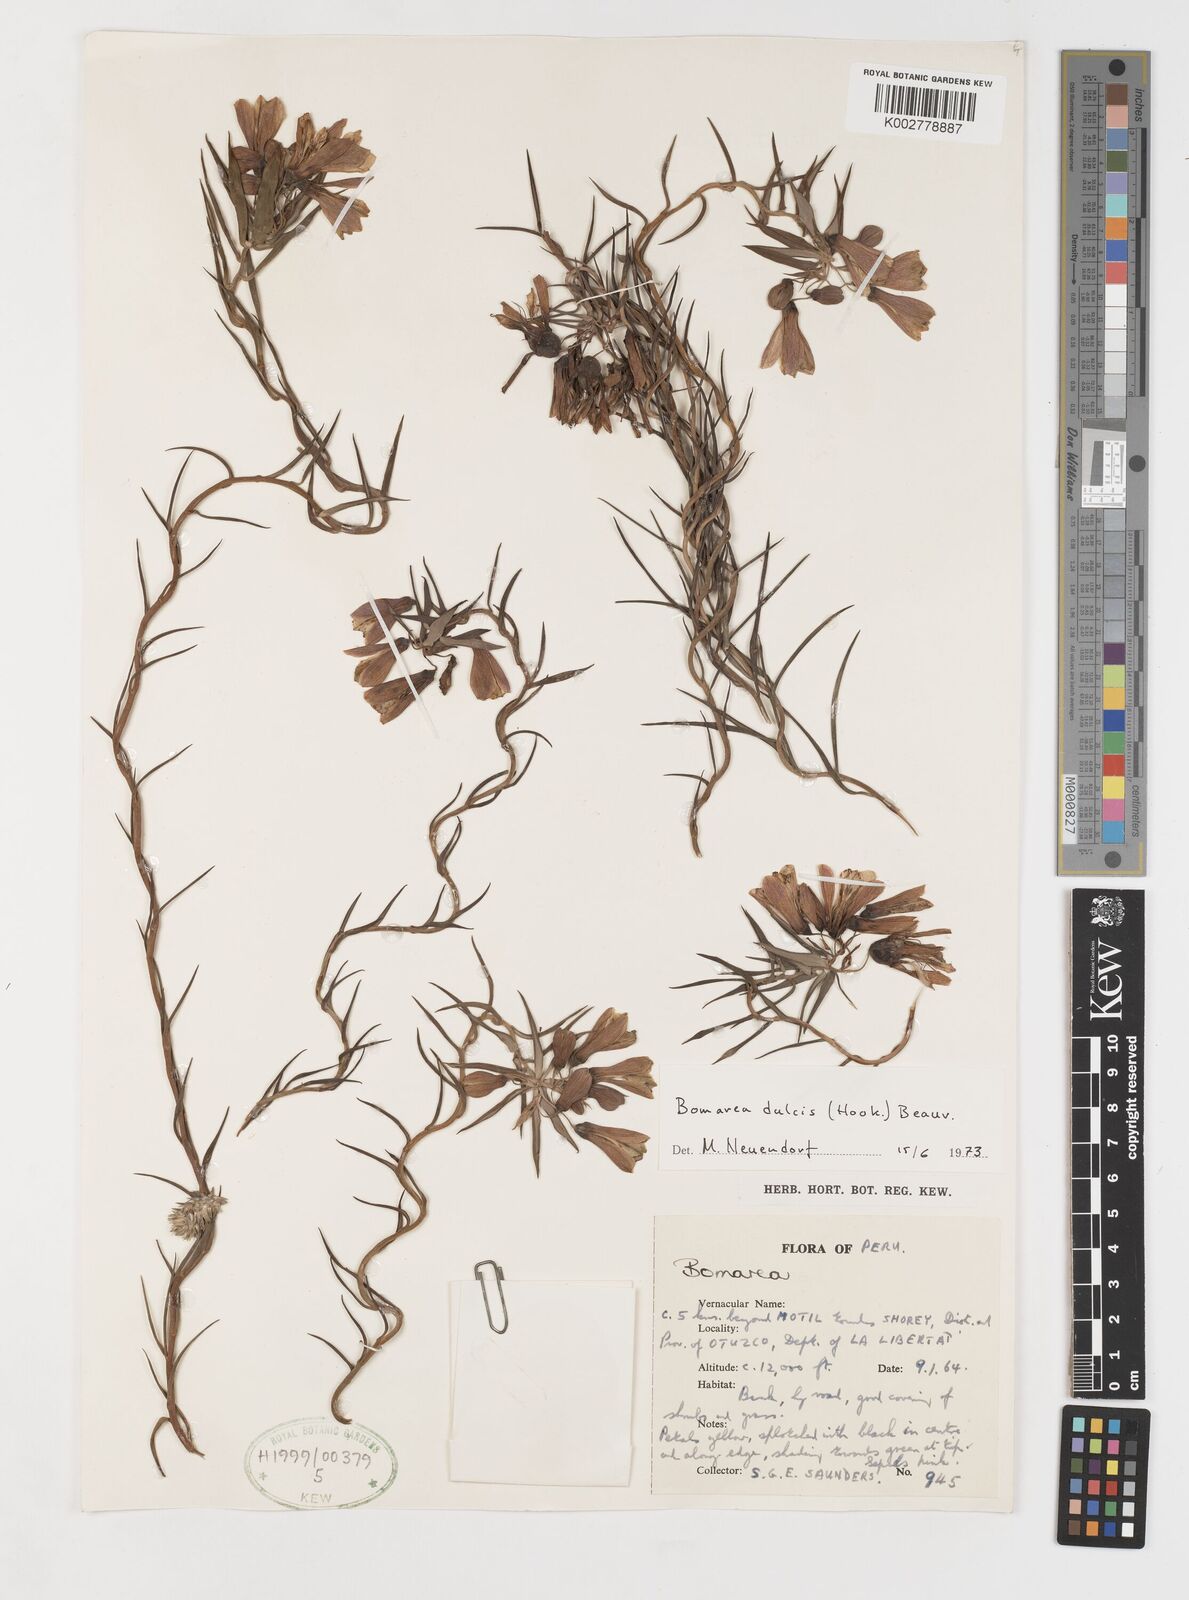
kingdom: Plantae
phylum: Tracheophyta
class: Liliopsida
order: Liliales
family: Alstroemeriaceae
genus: Bomarea
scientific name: Bomarea dulcis
